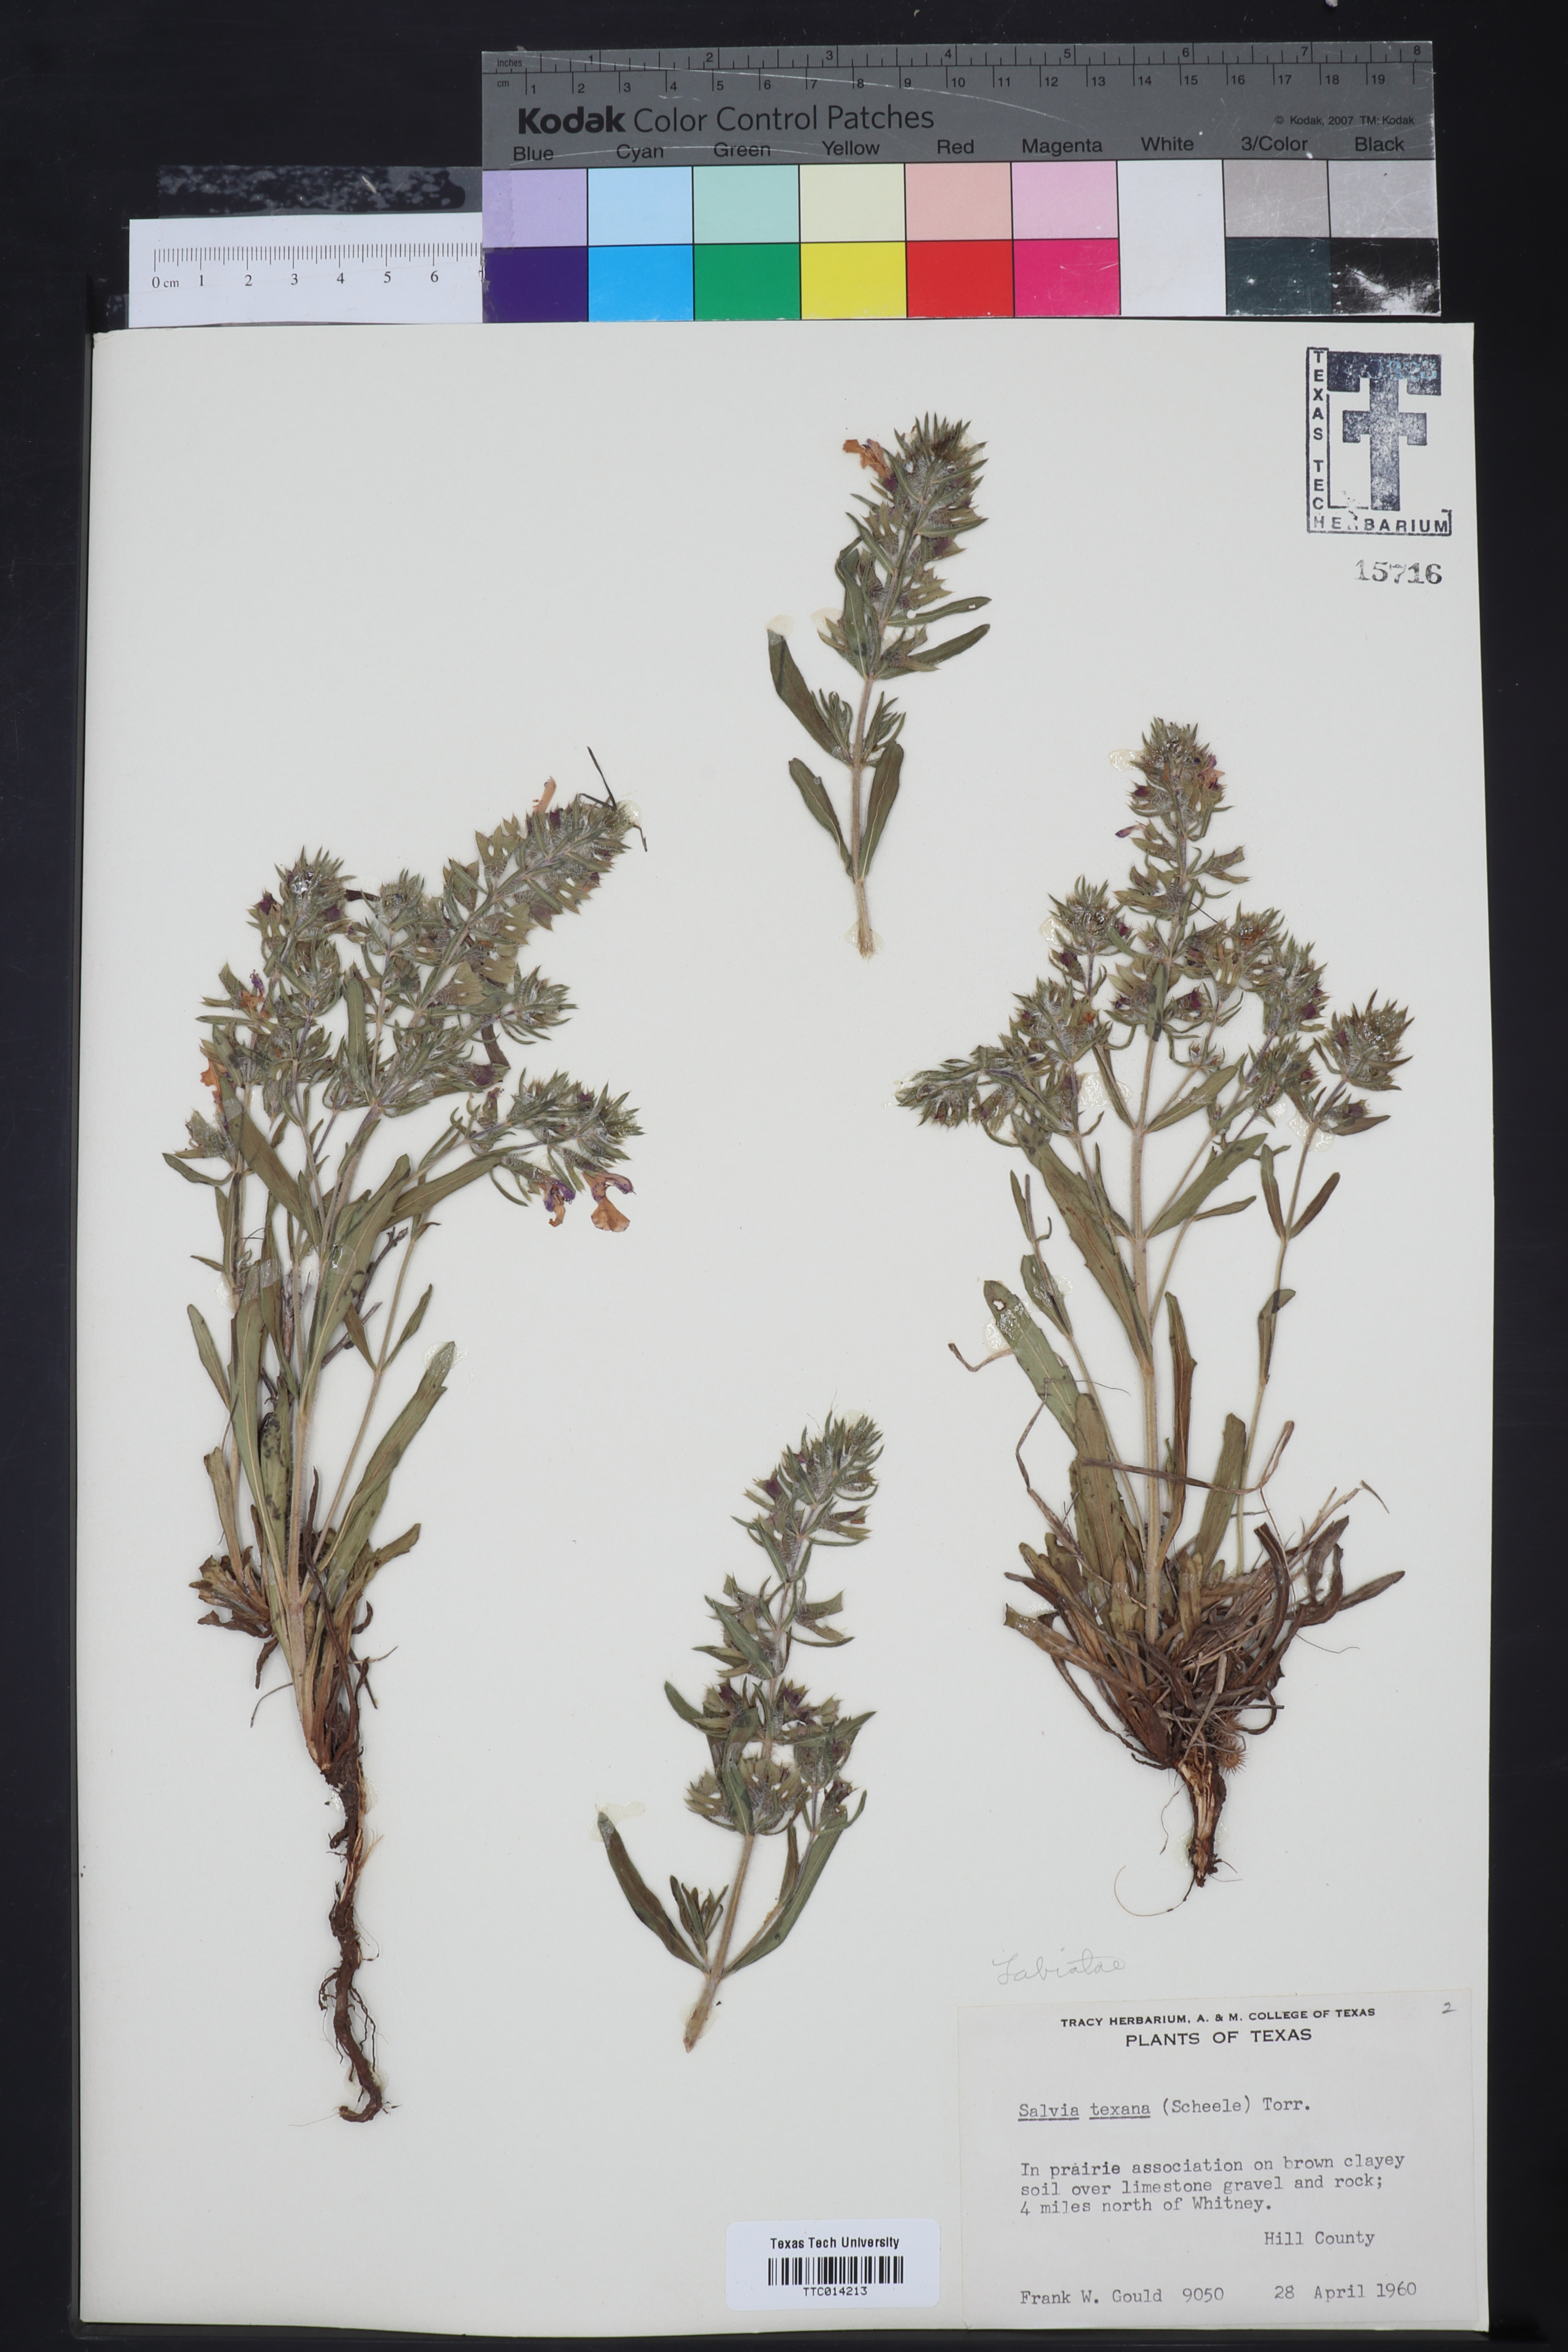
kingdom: Plantae
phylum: Tracheophyta
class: Magnoliopsida
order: Lamiales
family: Lamiaceae
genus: Salvia
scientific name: Salvia texana
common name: Texas sage
